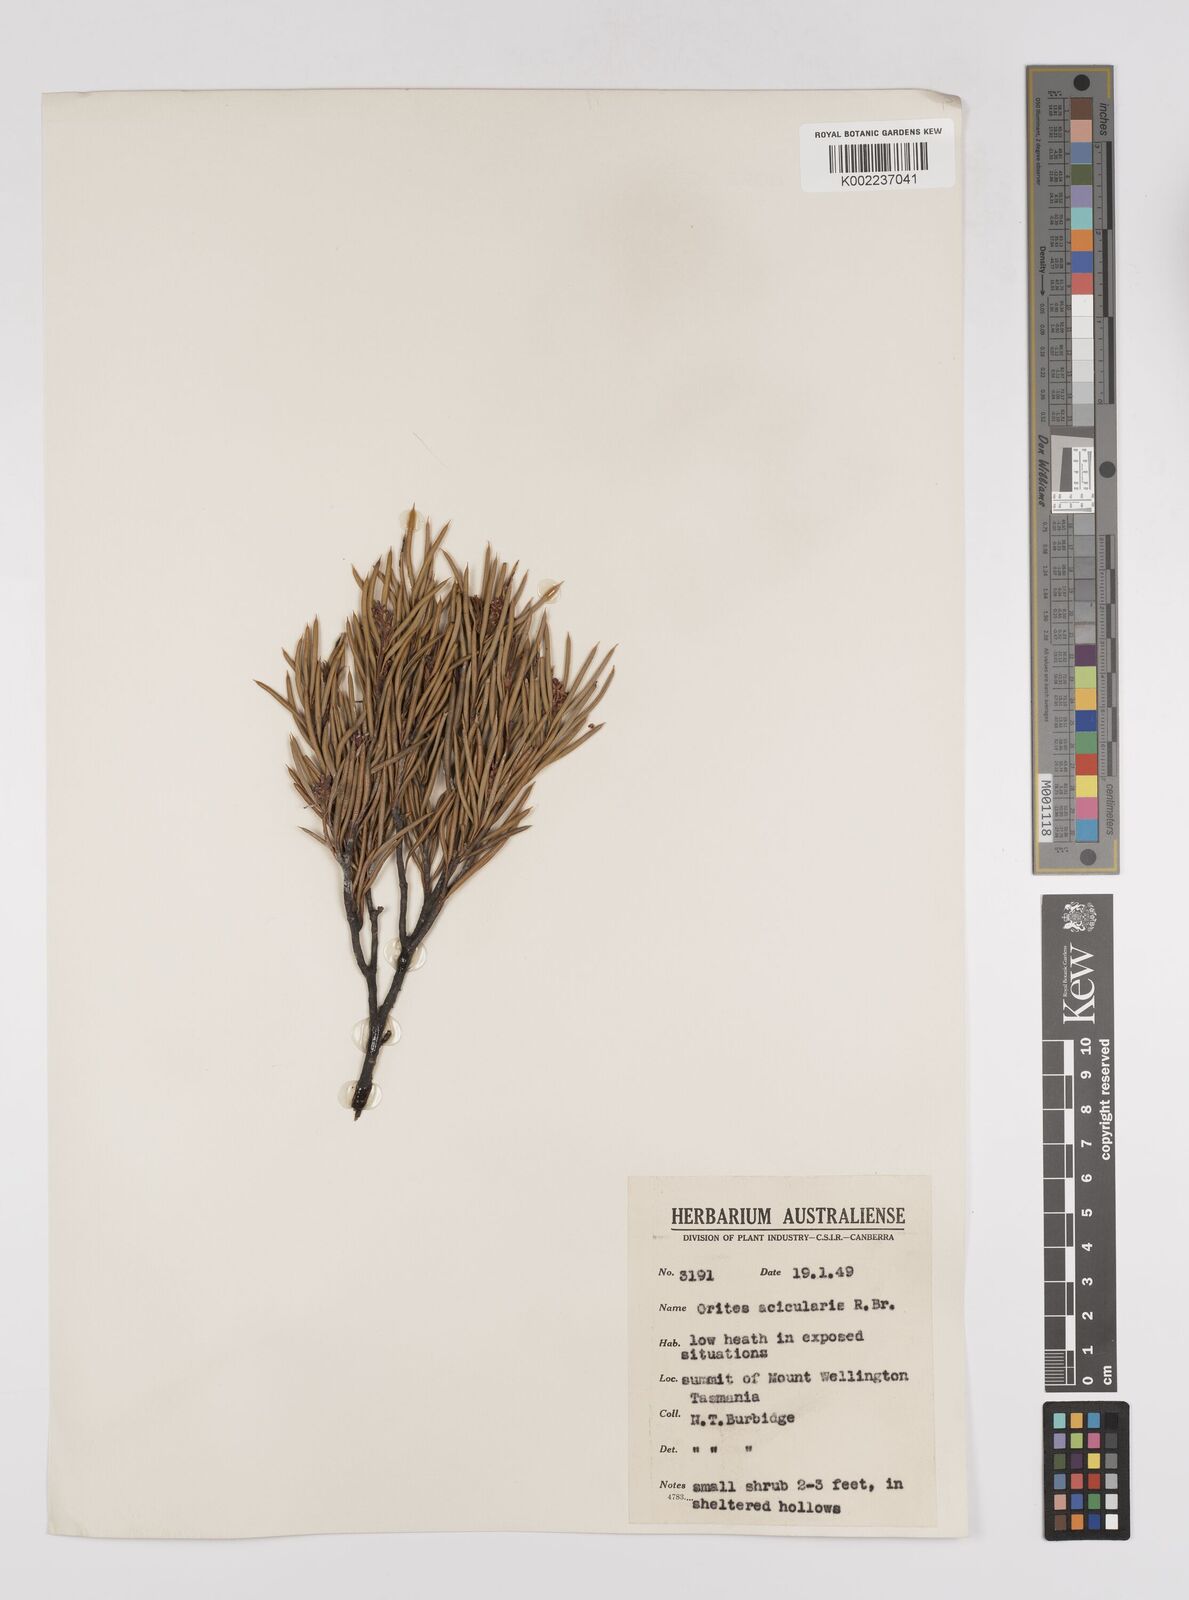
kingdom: Plantae
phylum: Tracheophyta
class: Magnoliopsida
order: Proteales
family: Proteaceae
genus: Orites
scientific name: Orites acicularis
